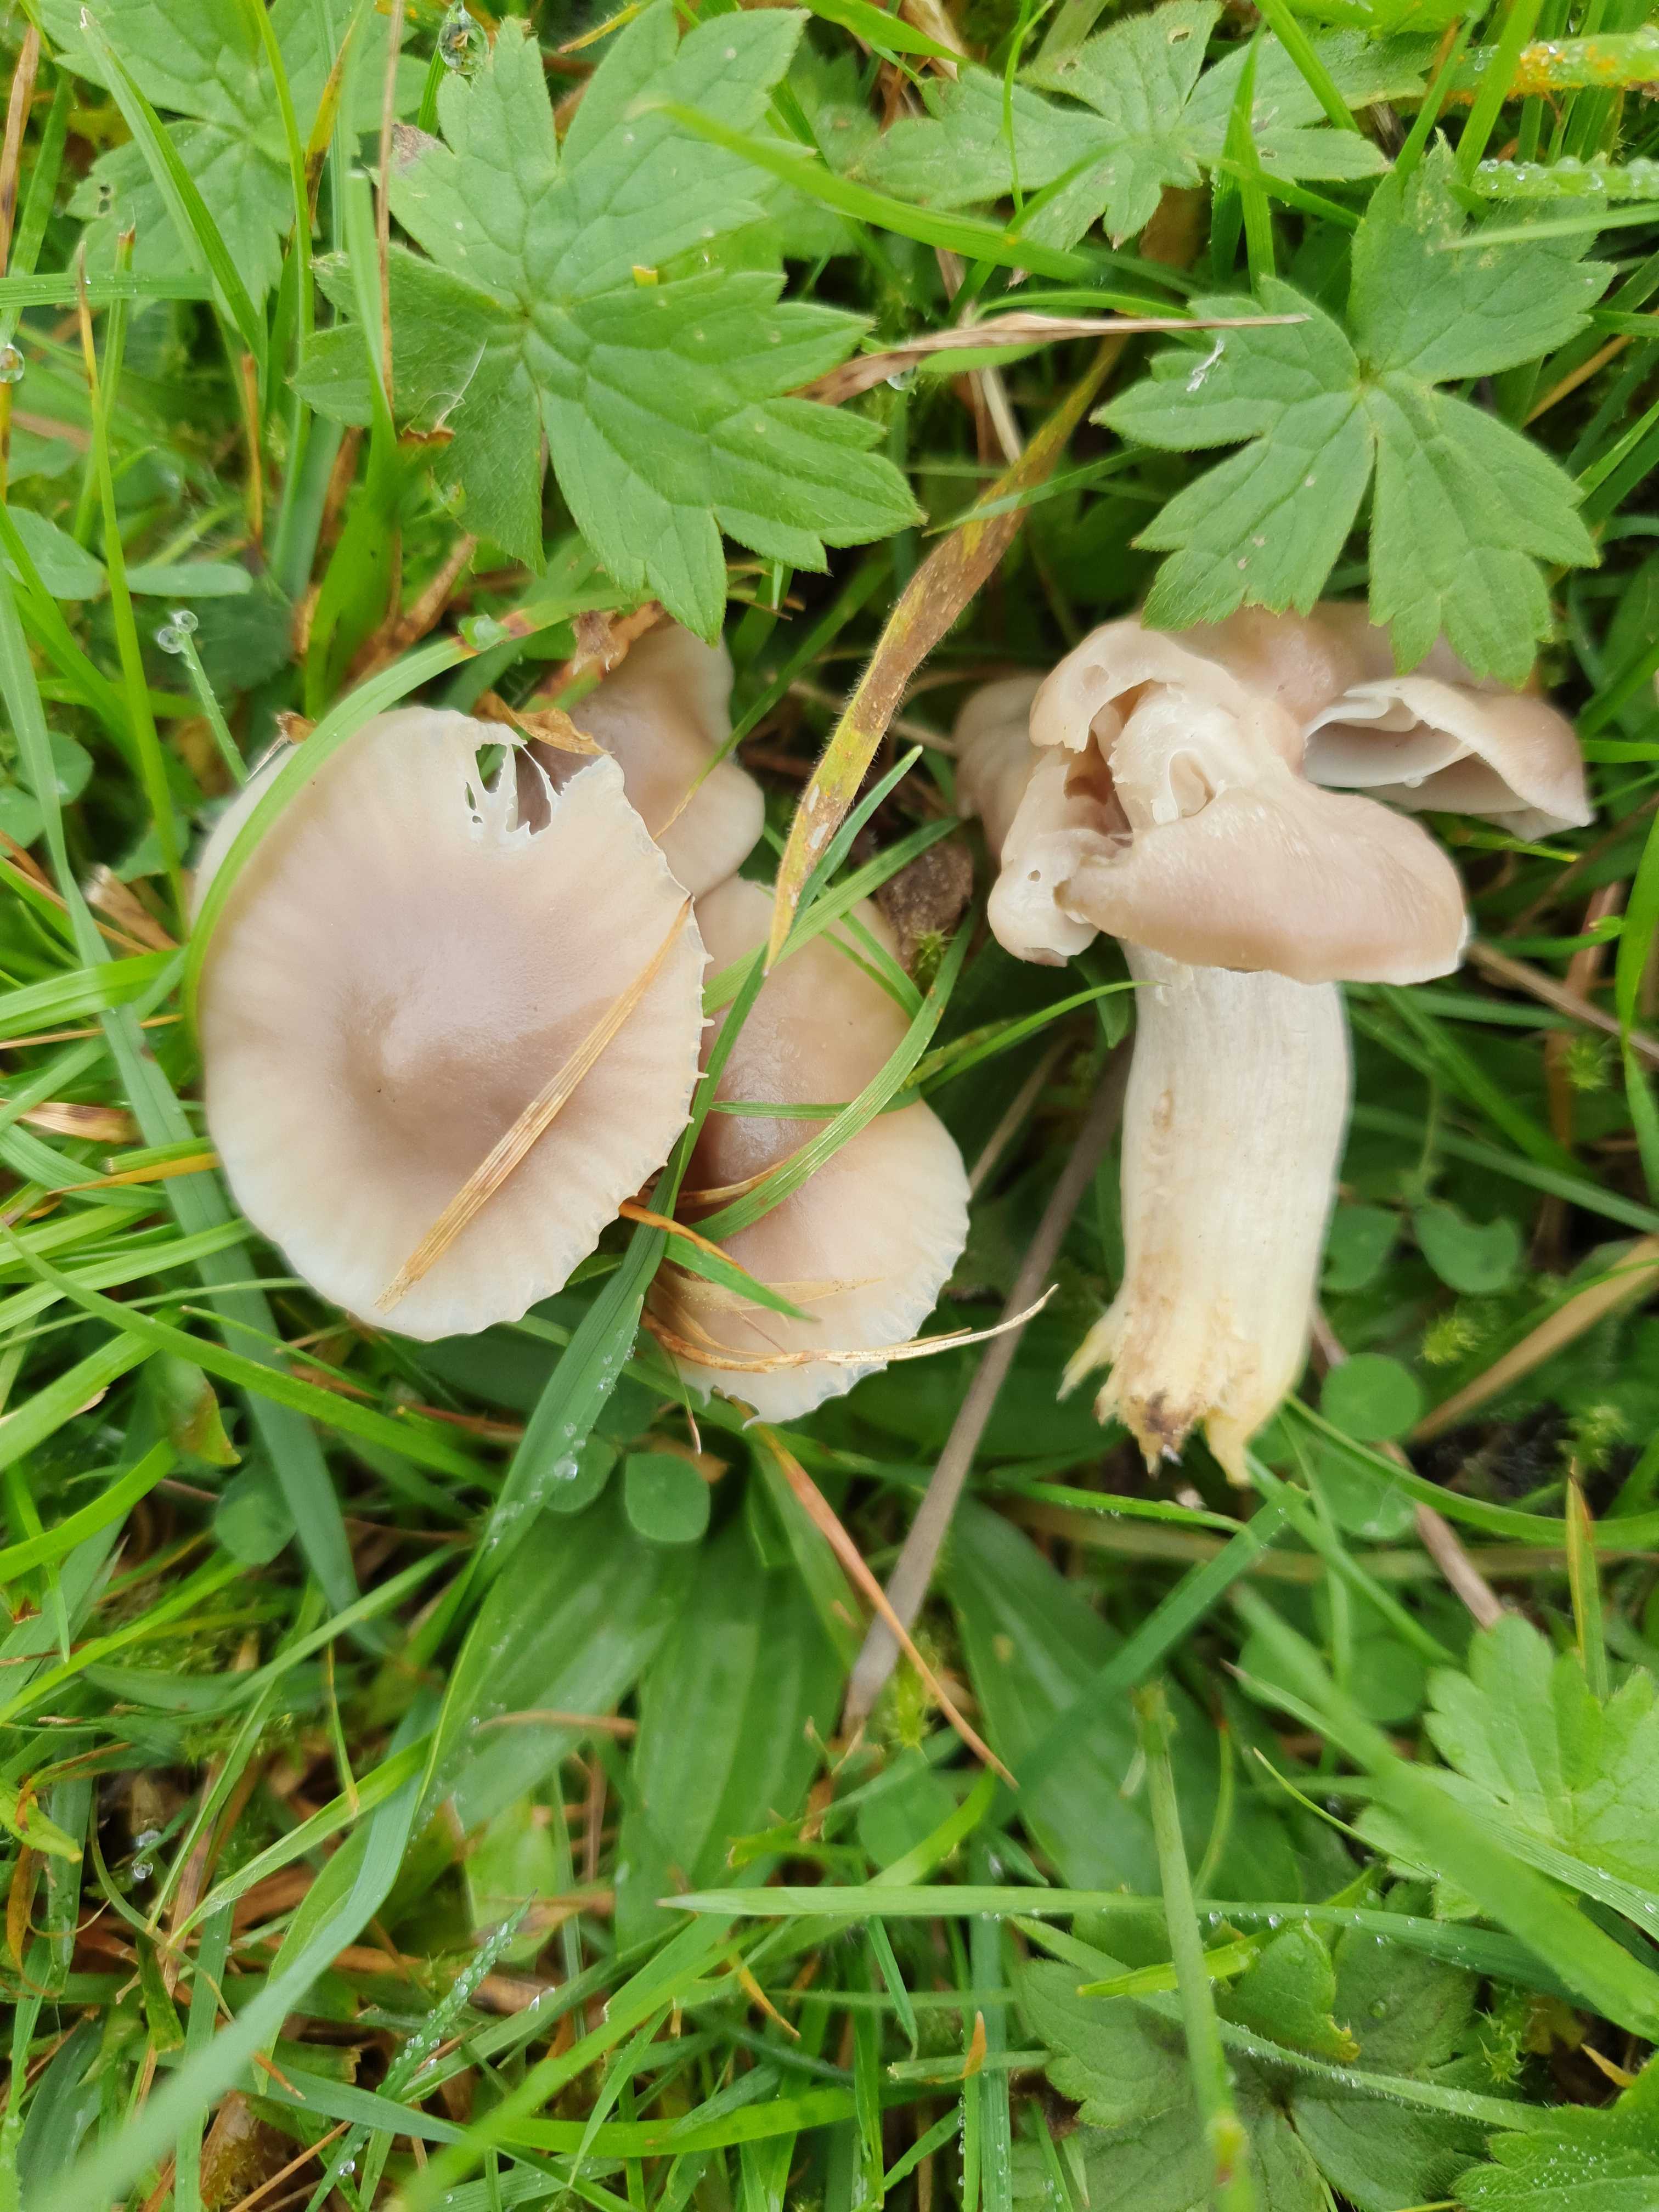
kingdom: Fungi
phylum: Basidiomycota
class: Agaricomycetes
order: Agaricales
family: Hygrophoraceae
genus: Cuphophyllus
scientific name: Cuphophyllus flavipes
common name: gulfodet vokshat
